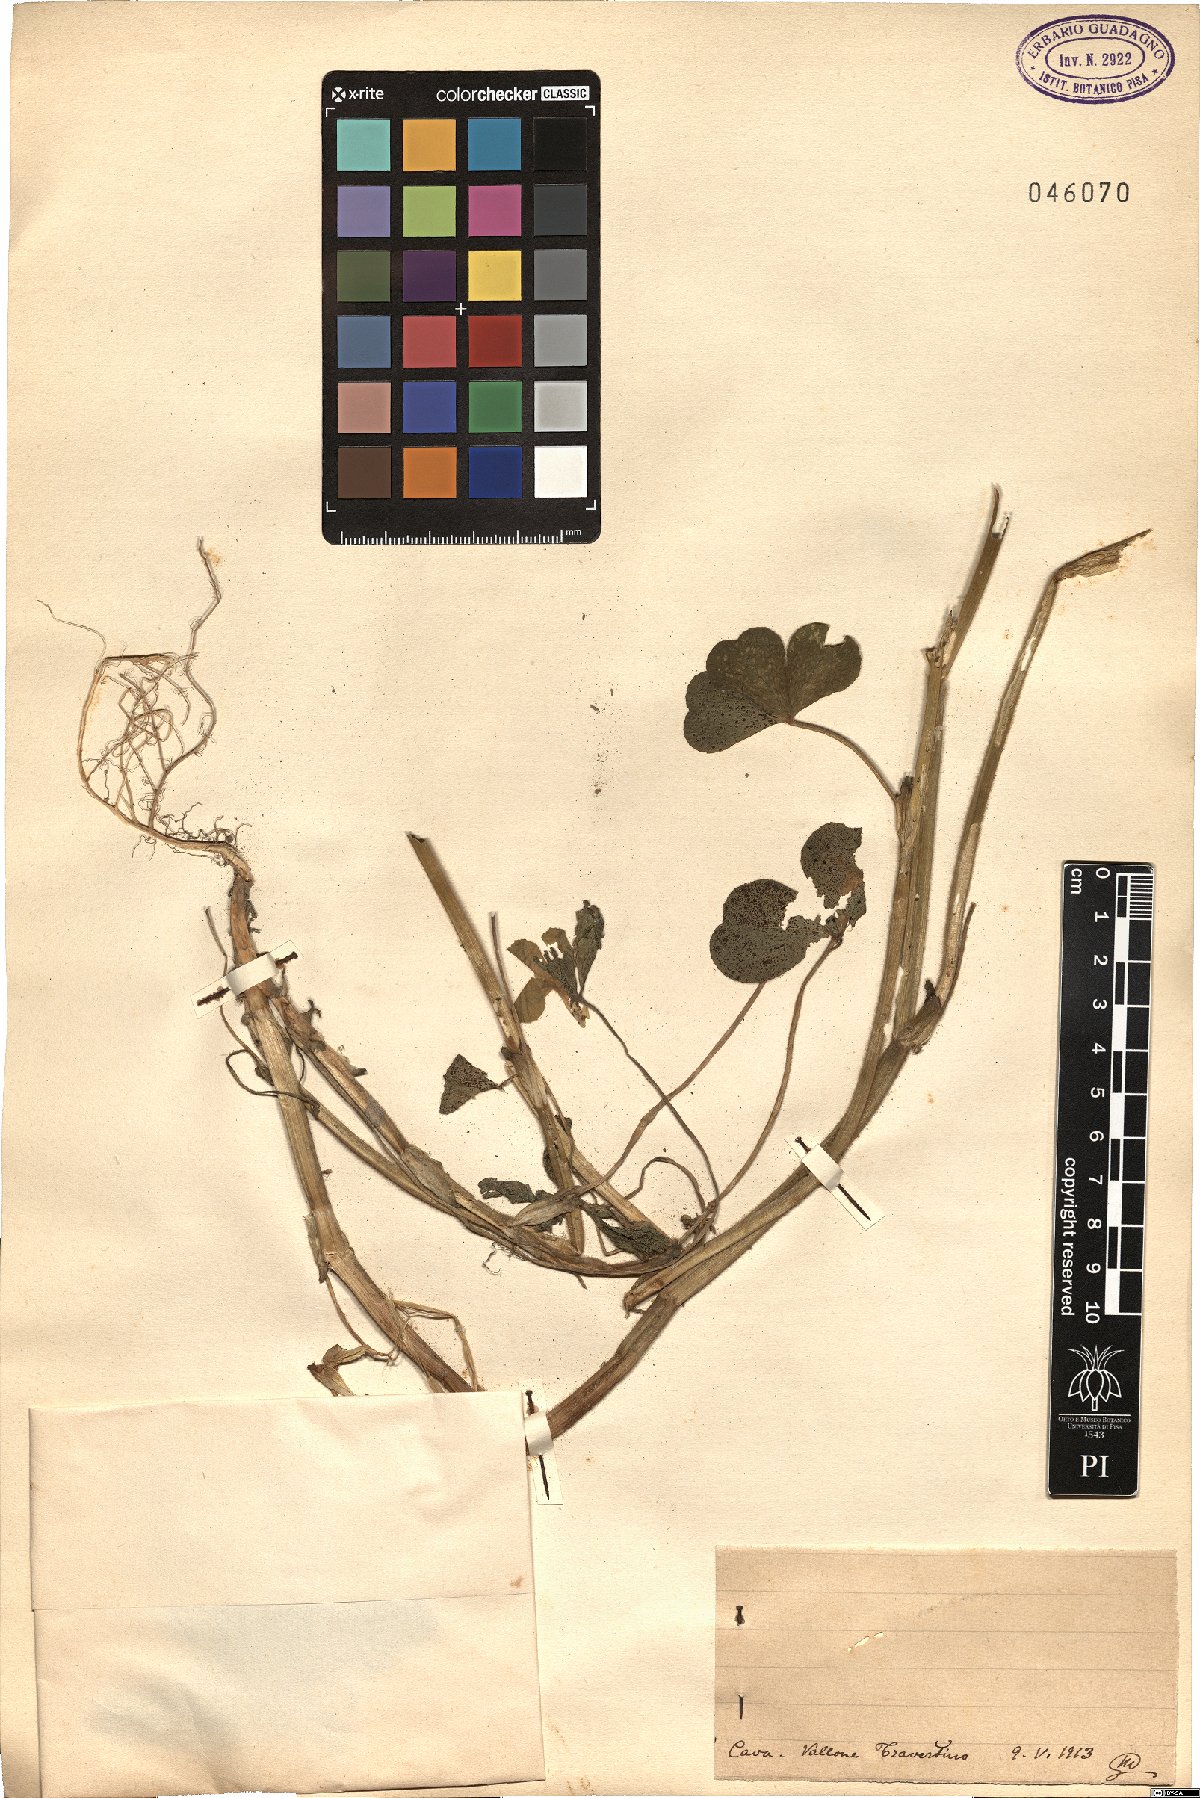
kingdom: Plantae
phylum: Tracheophyta
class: Magnoliopsida
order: Fabales
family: Fabaceae
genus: Trifolium
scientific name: Trifolium
